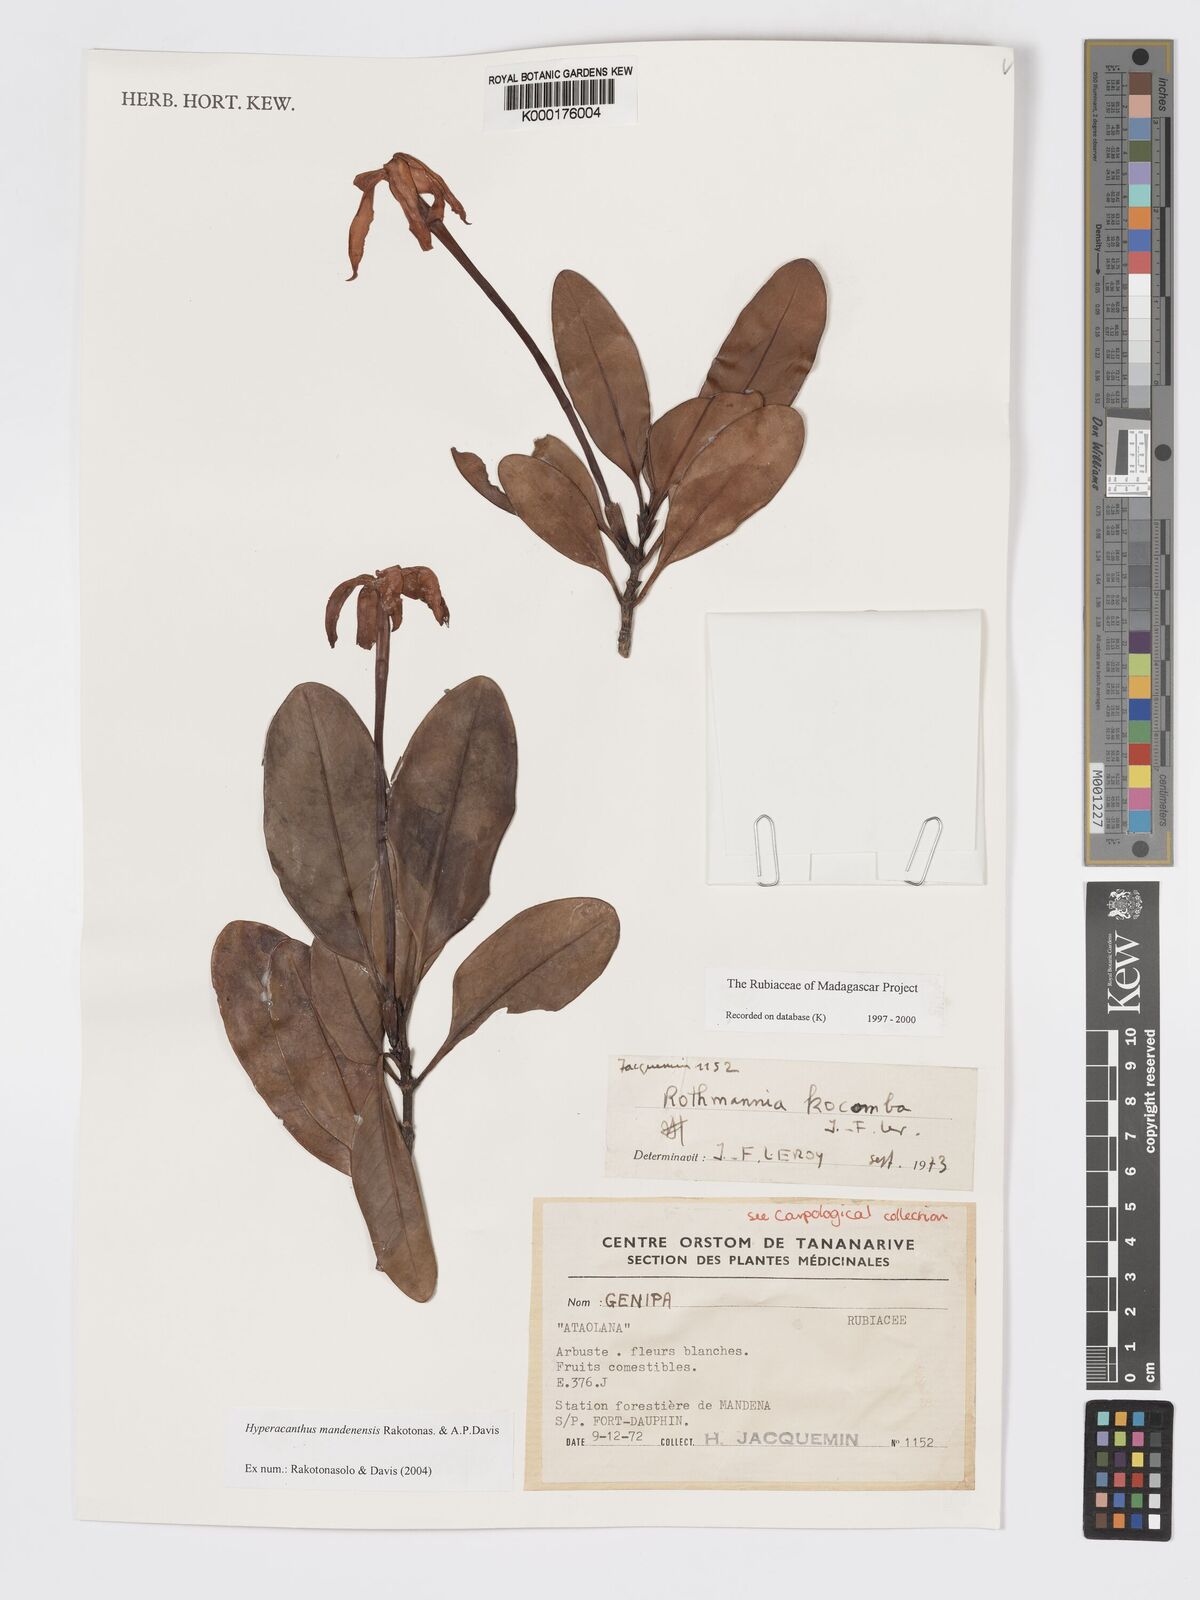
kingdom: Plantae
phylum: Tracheophyta
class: Magnoliopsida
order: Gentianales
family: Rubiaceae
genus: Hyperacanthus
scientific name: Hyperacanthus mandenensis
